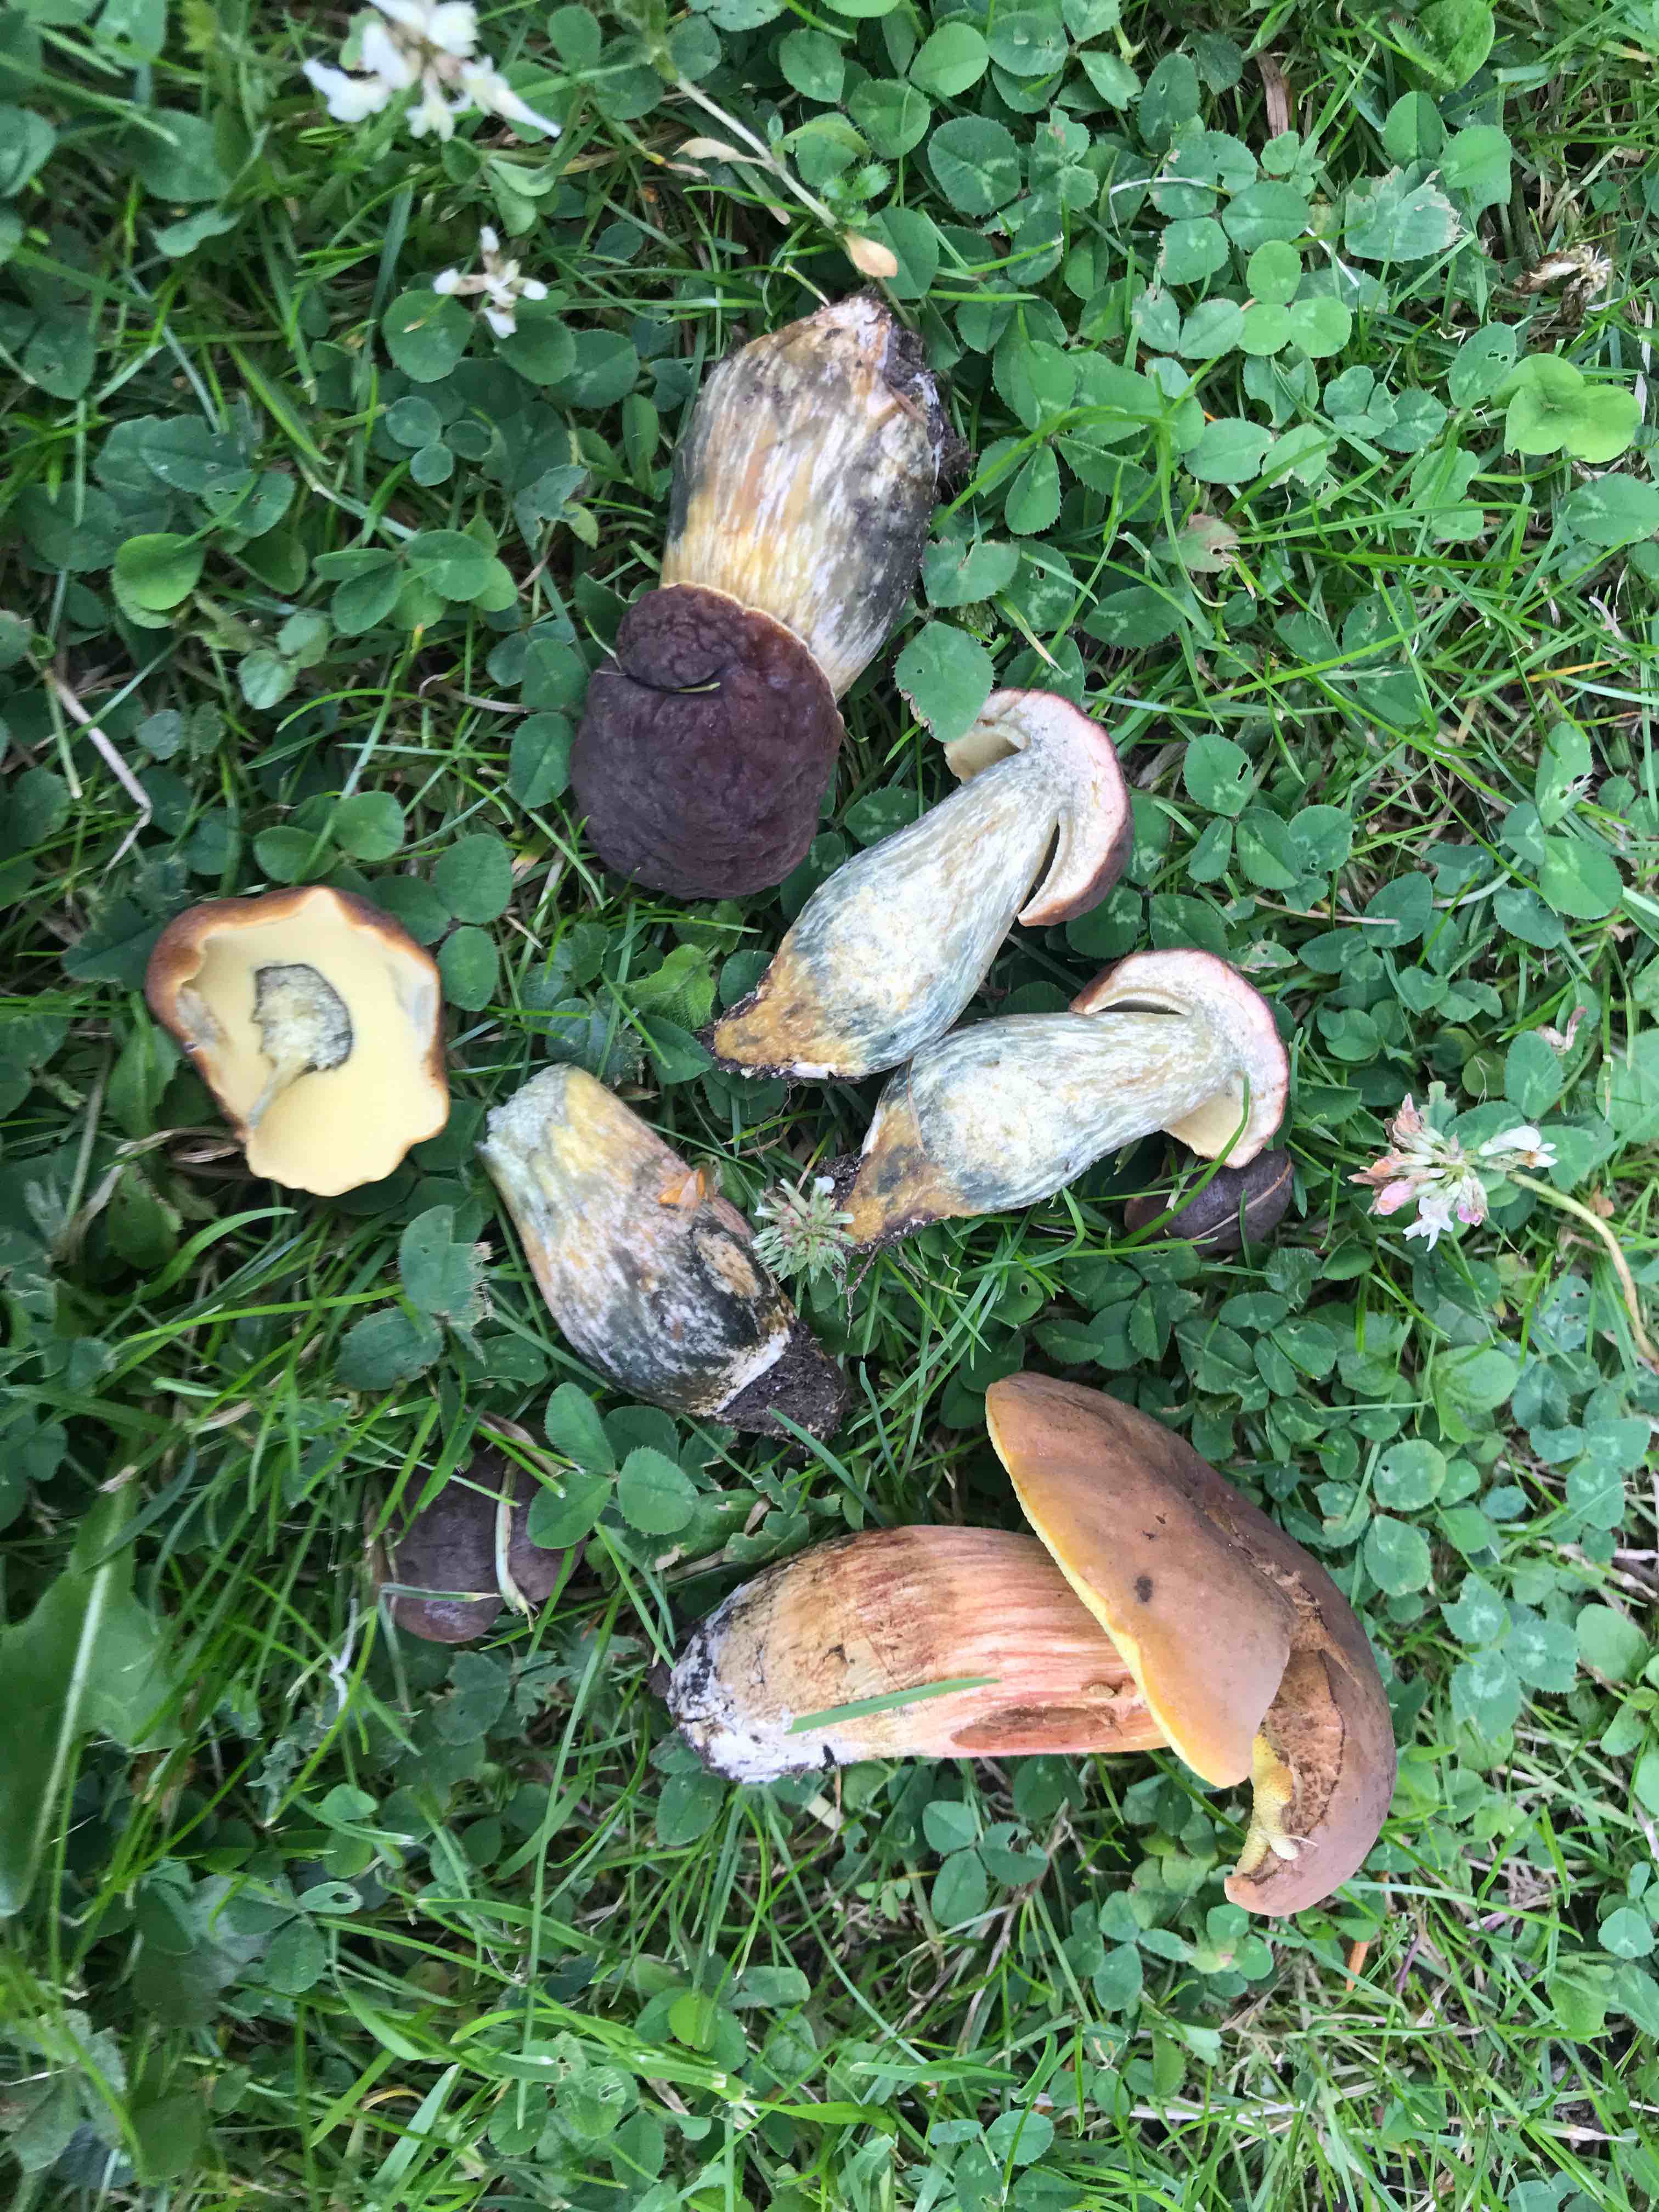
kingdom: Fungi
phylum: Basidiomycota
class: Agaricomycetes
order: Boletales
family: Boletaceae
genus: Hortiboletus
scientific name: Hortiboletus bubalinus
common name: aurora-rørhat
